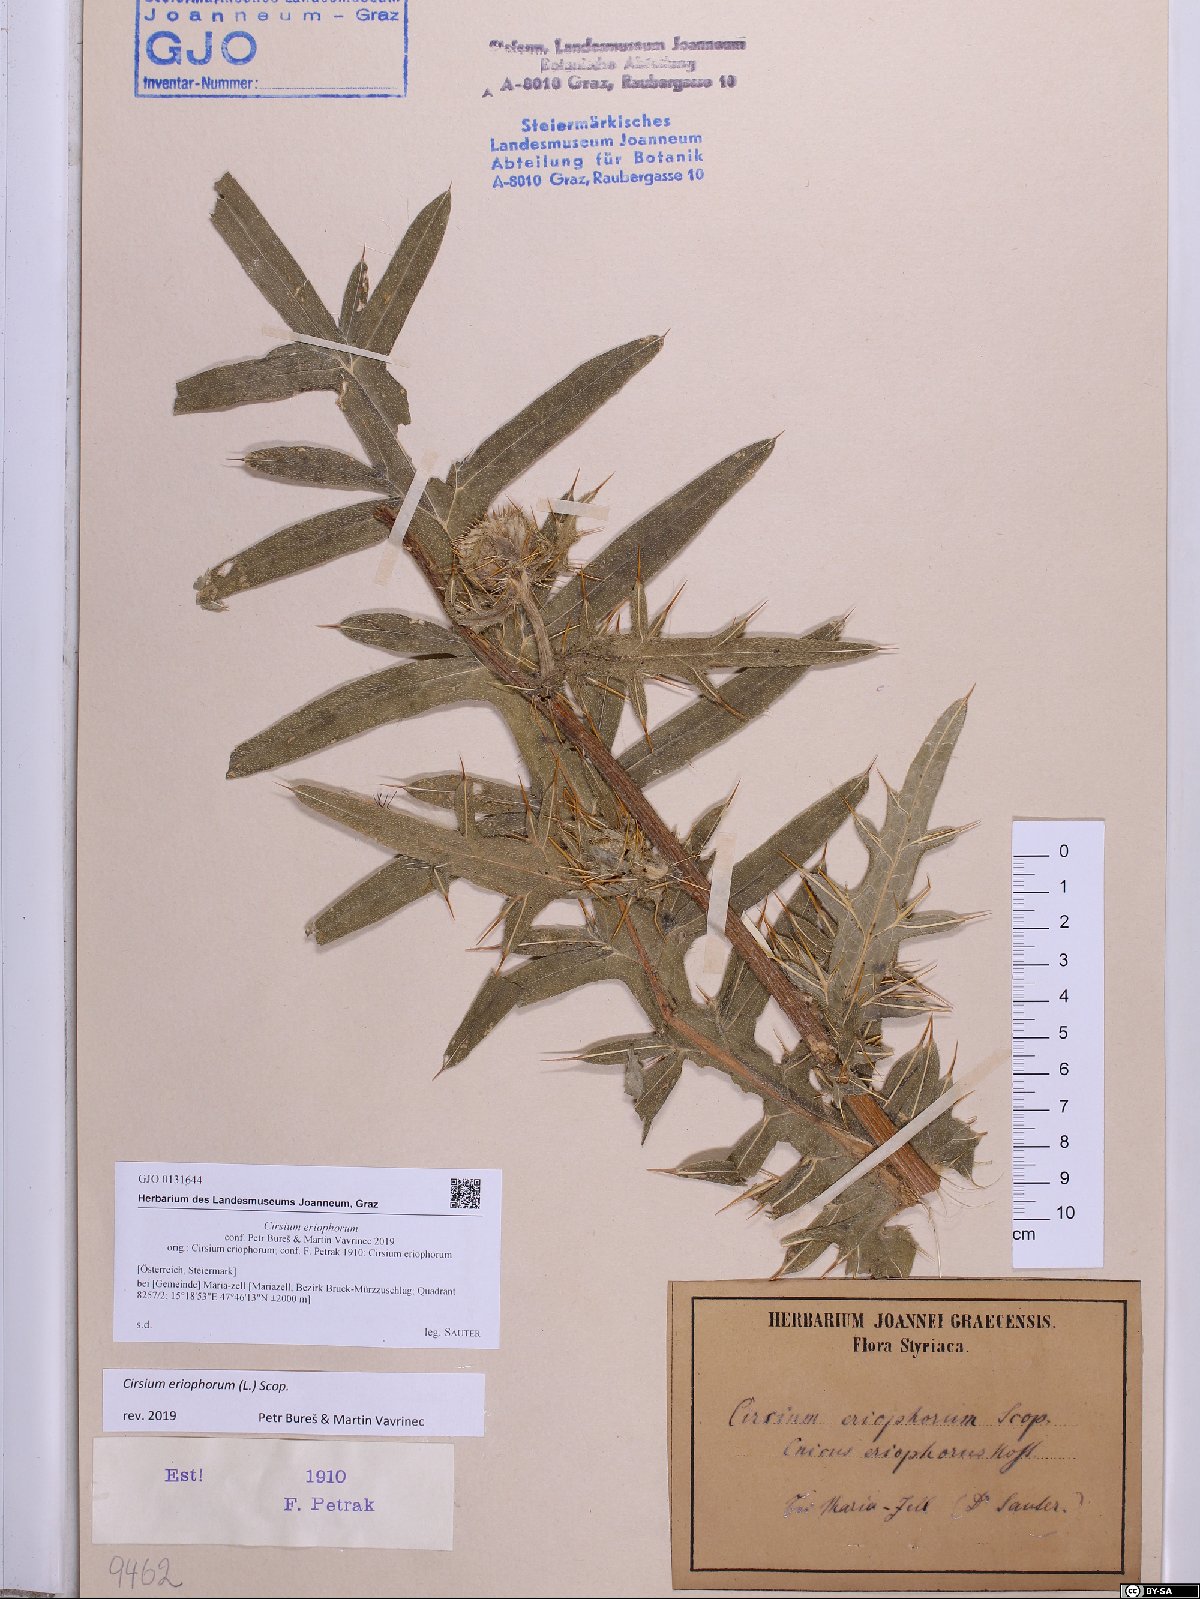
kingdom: Plantae
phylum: Tracheophyta
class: Magnoliopsida
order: Asterales
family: Asteraceae
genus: Lophiolepis
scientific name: Lophiolepis eriophora
